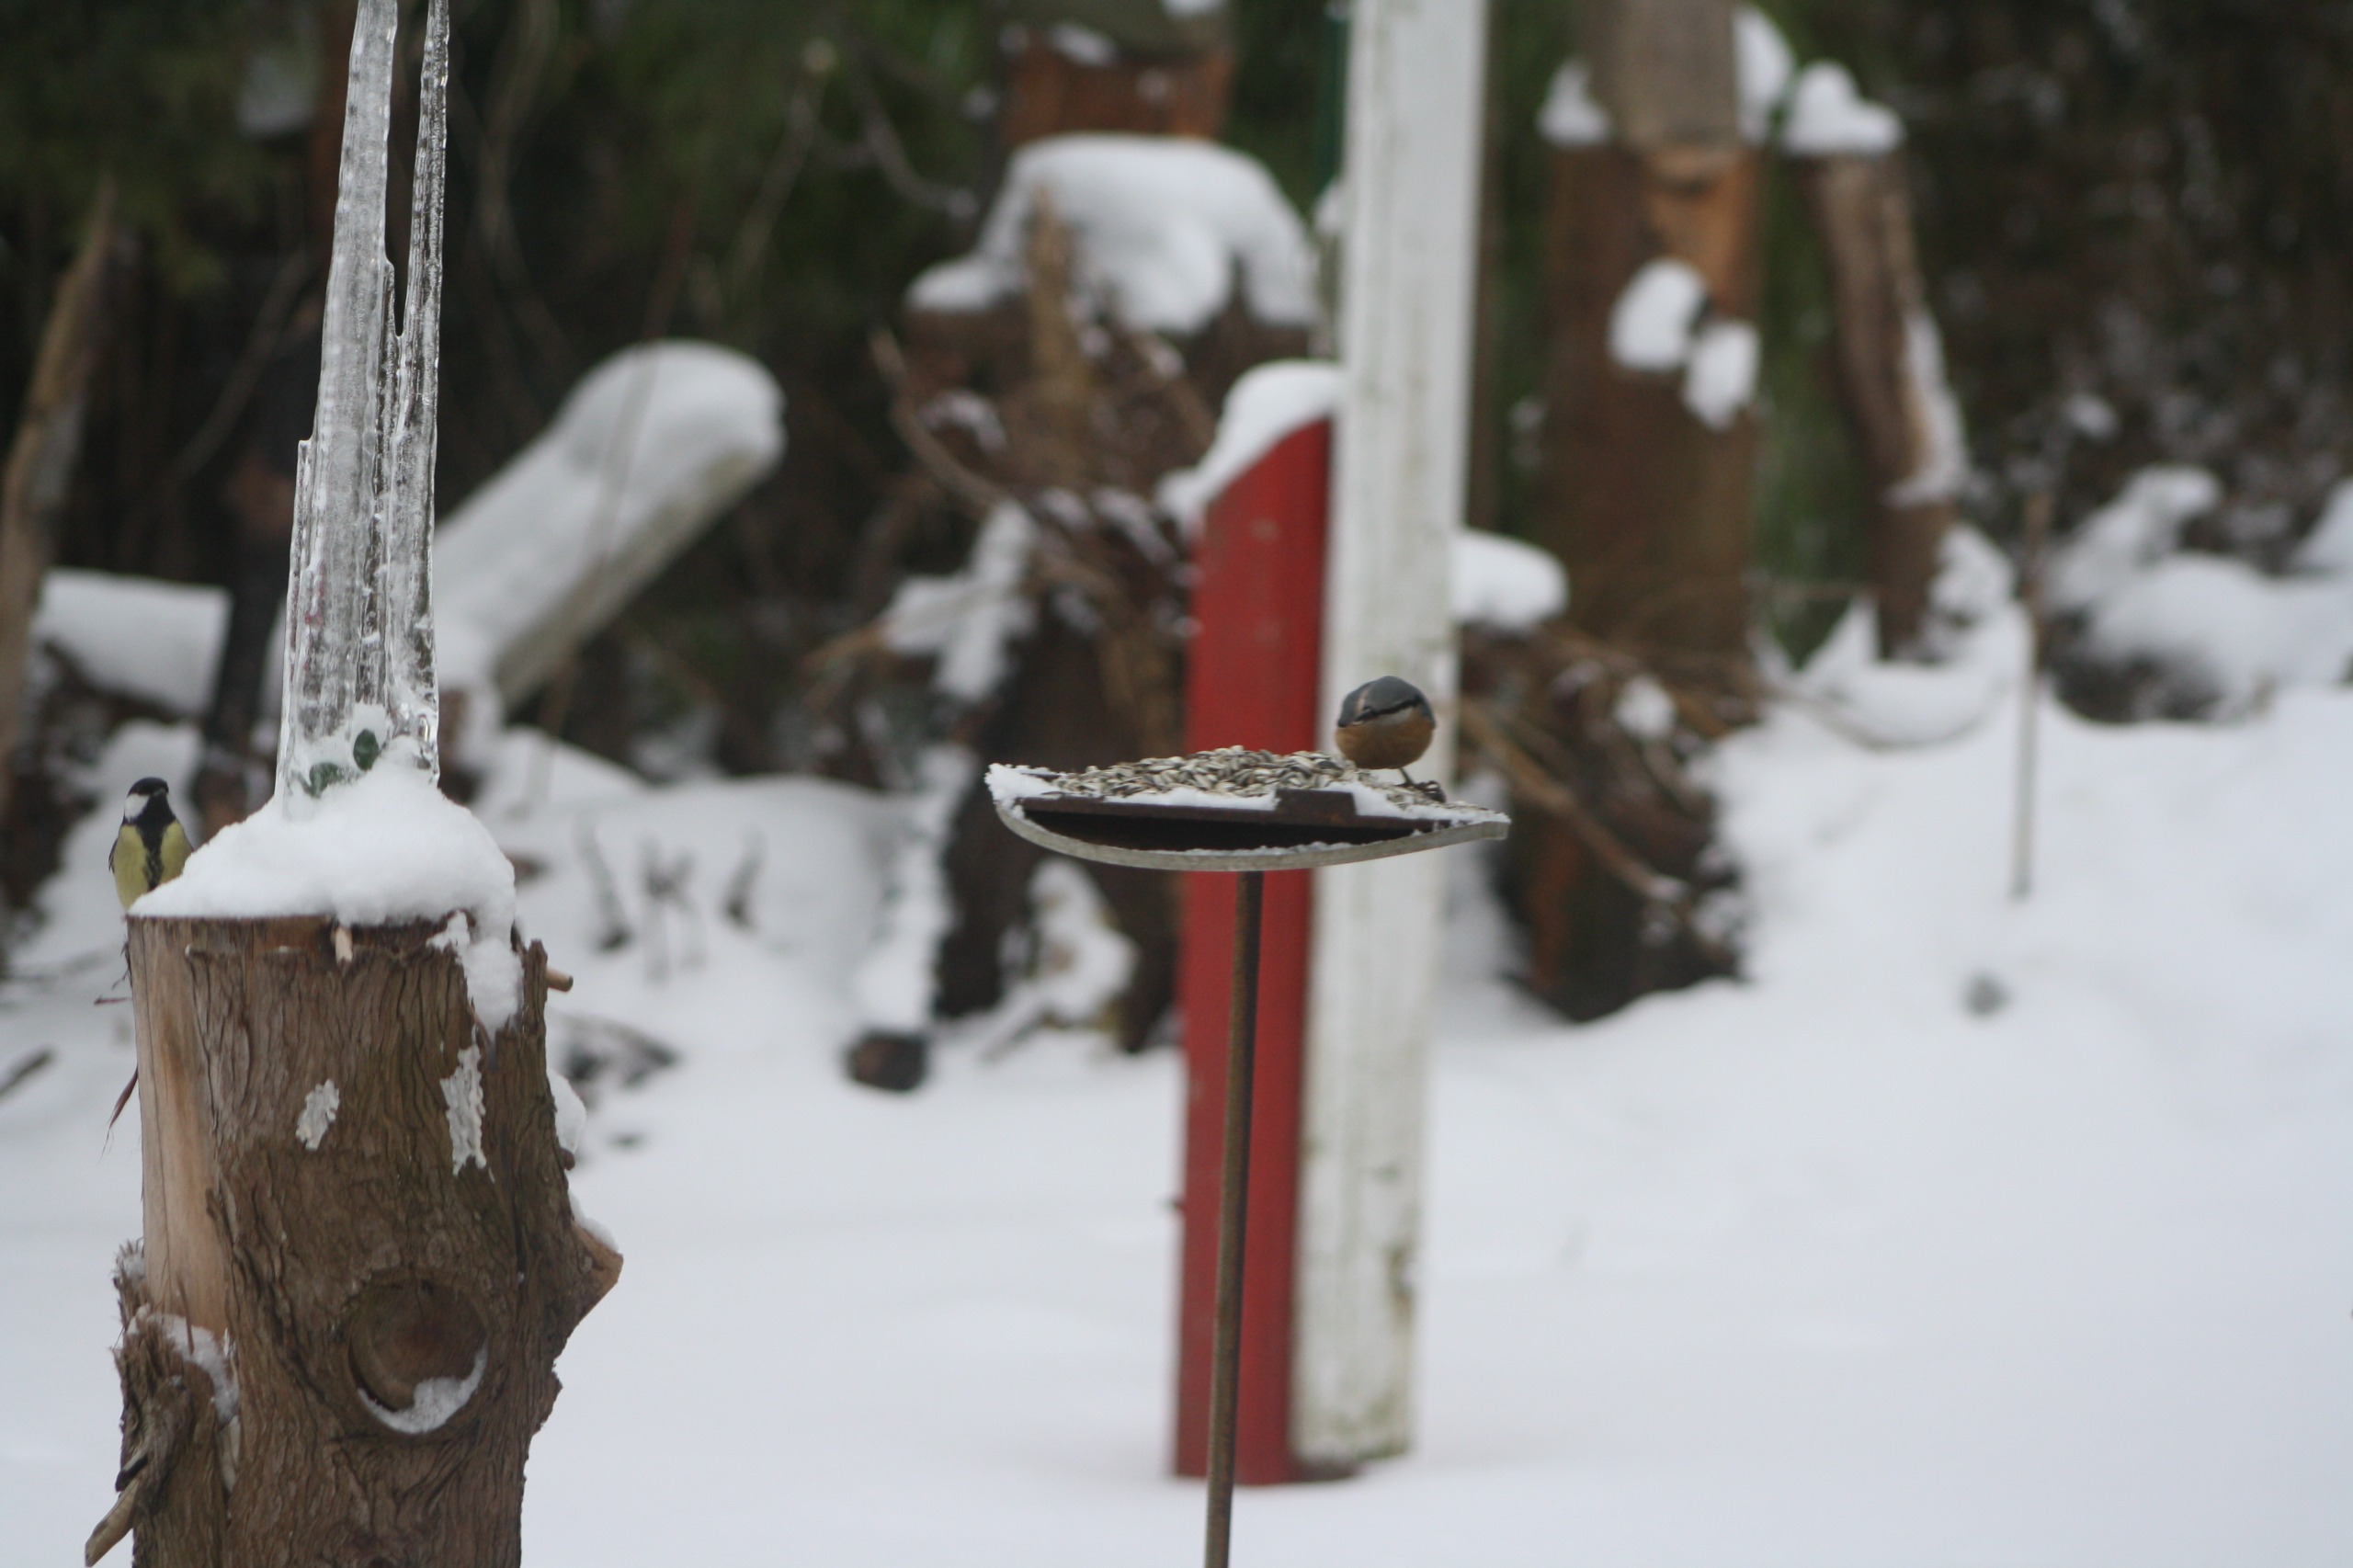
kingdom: Animalia
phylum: Chordata
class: Aves
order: Passeriformes
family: Sittidae
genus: Sitta
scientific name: Sitta europaea
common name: Spætmejse
